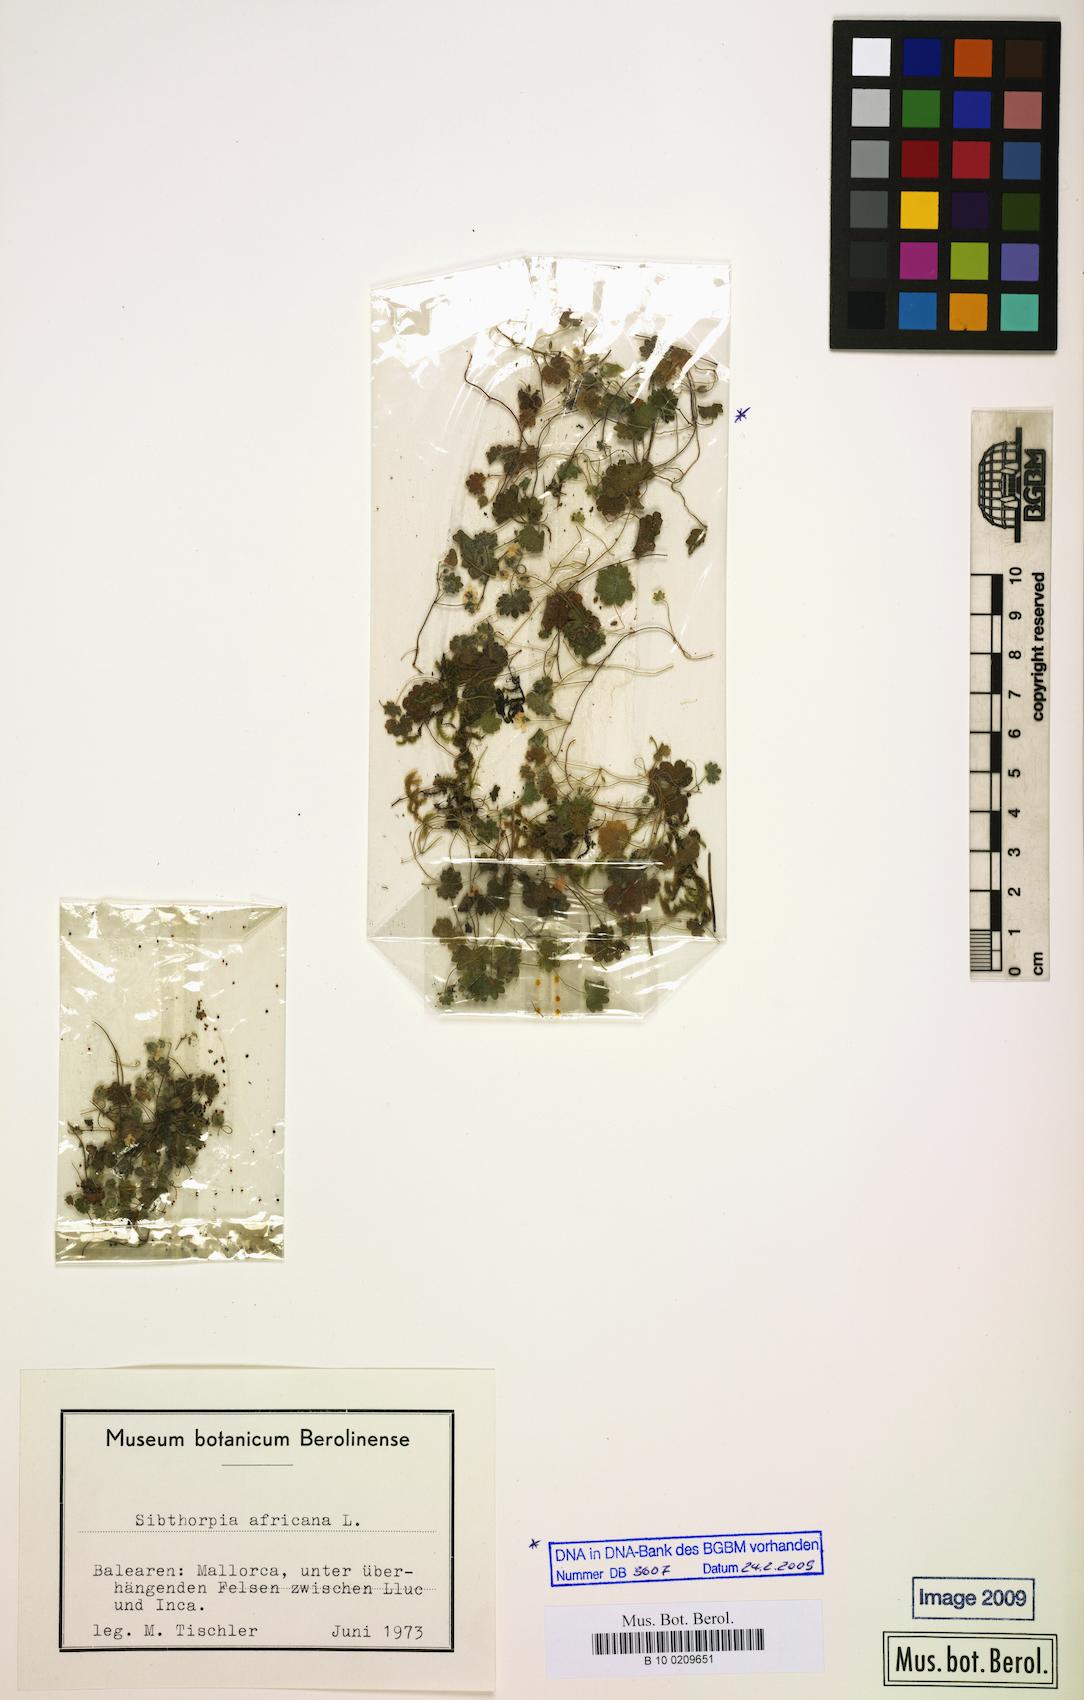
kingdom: Plantae
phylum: Tracheophyta
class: Magnoliopsida
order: Lamiales
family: Plantaginaceae
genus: Sibthorpia
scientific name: Sibthorpia africana
